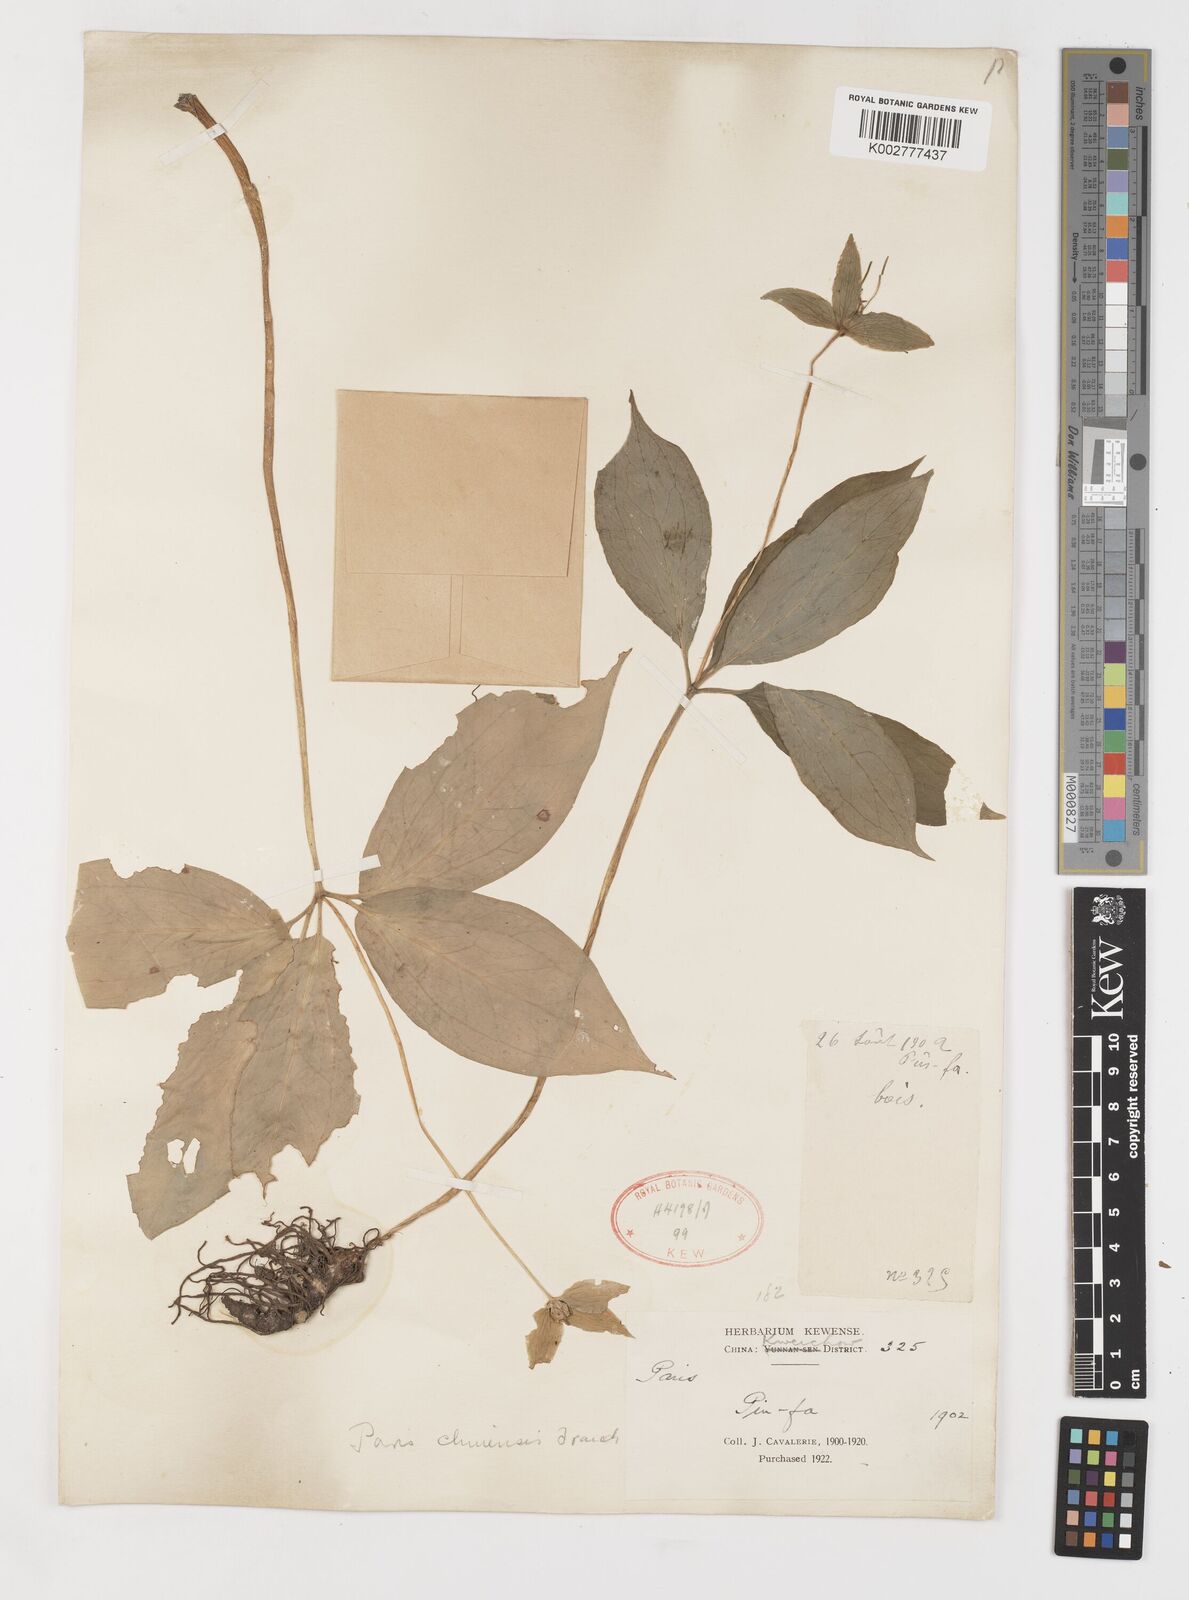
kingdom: Plantae
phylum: Tracheophyta
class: Liliopsida
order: Liliales
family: Melanthiaceae
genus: Paris
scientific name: Paris chinensis
